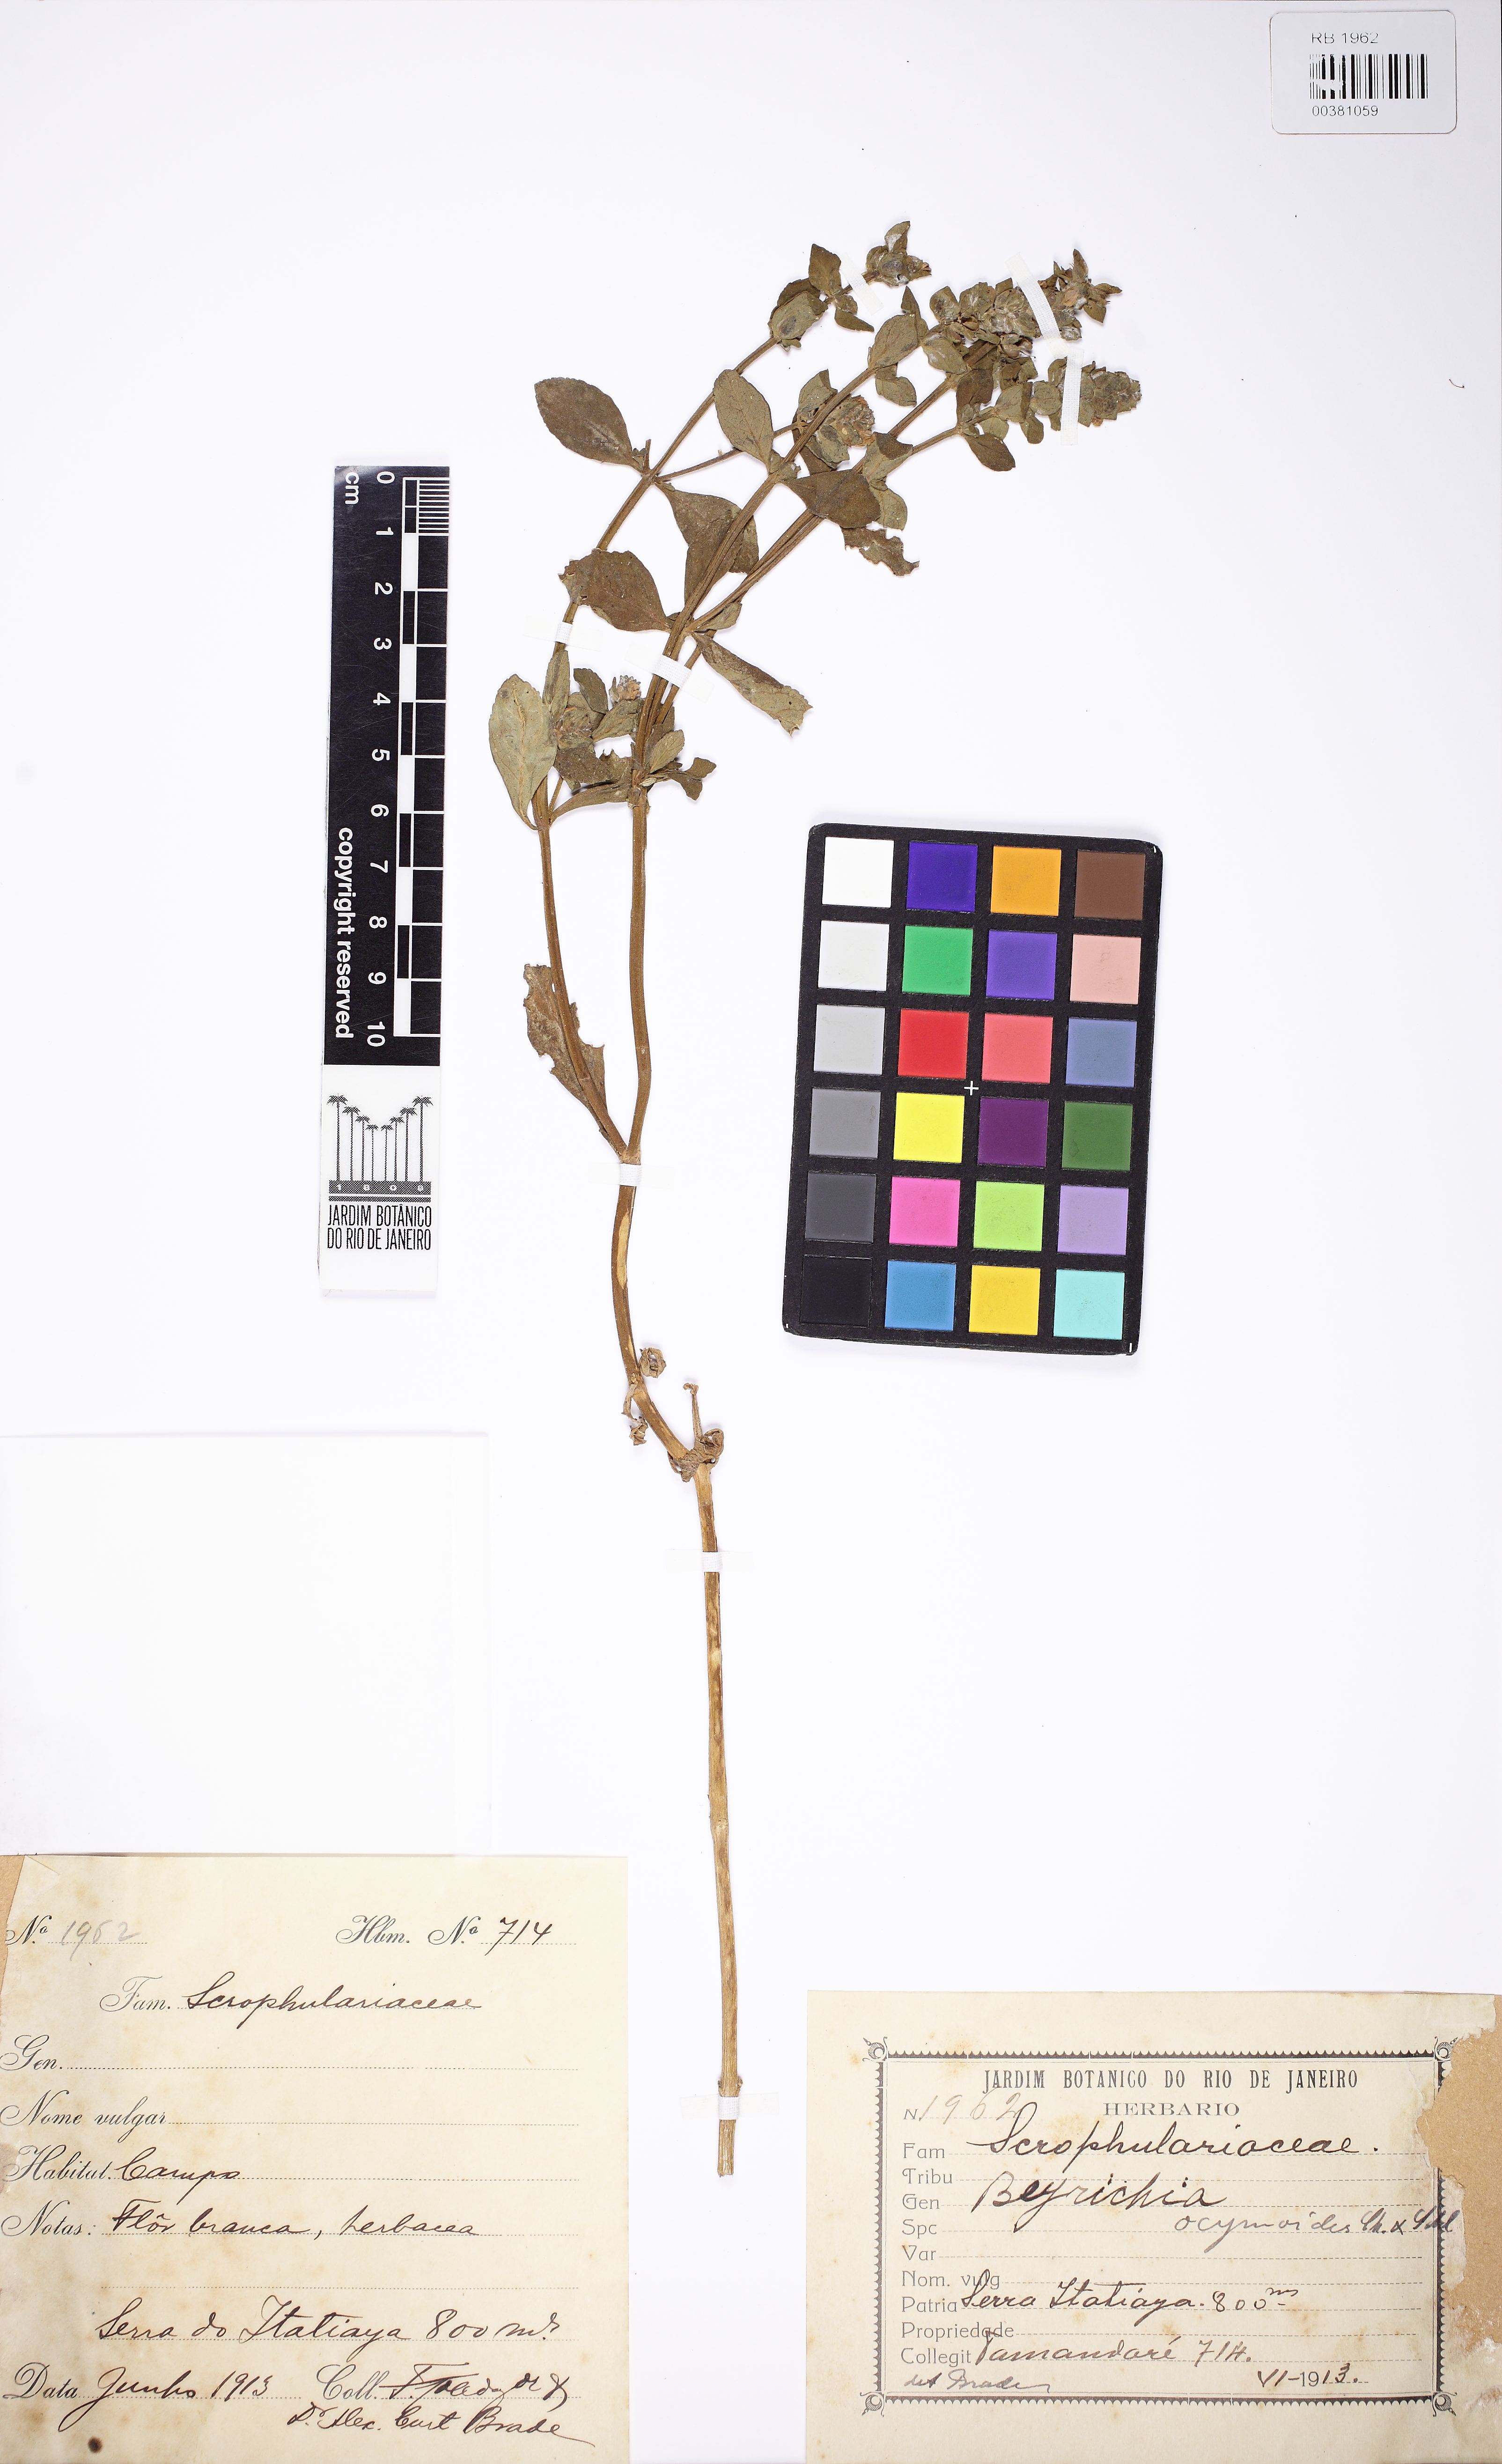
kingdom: Plantae
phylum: Tracheophyta
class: Magnoliopsida
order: Lamiales
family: Plantaginaceae
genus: Matourea
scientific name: Matourea ocymoides
